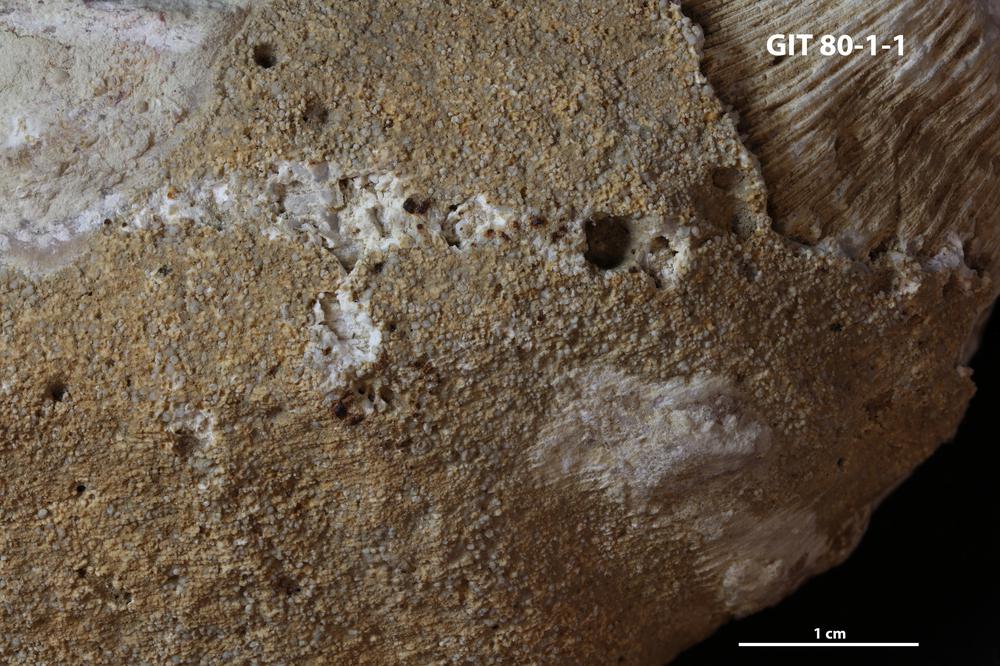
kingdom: Animalia
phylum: Sipuncula
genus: Trypanites
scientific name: Trypanites
